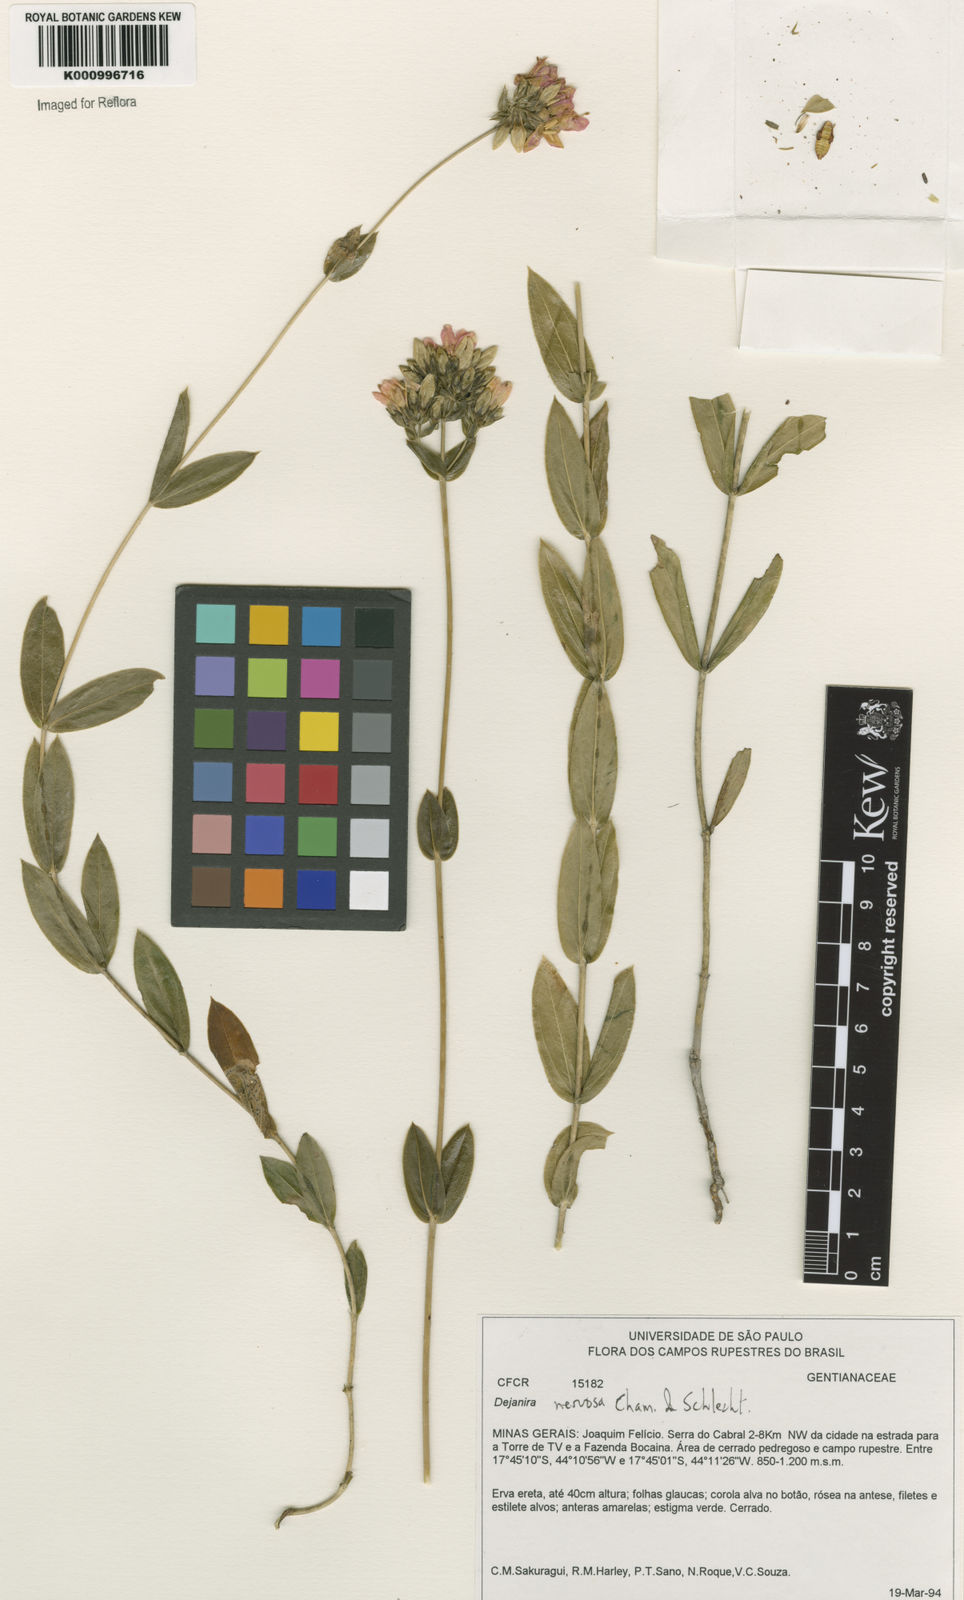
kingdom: Plantae
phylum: Tracheophyta
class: Magnoliopsida
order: Gentianales
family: Gentianaceae
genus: Deianira
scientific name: Deianira nervosa
